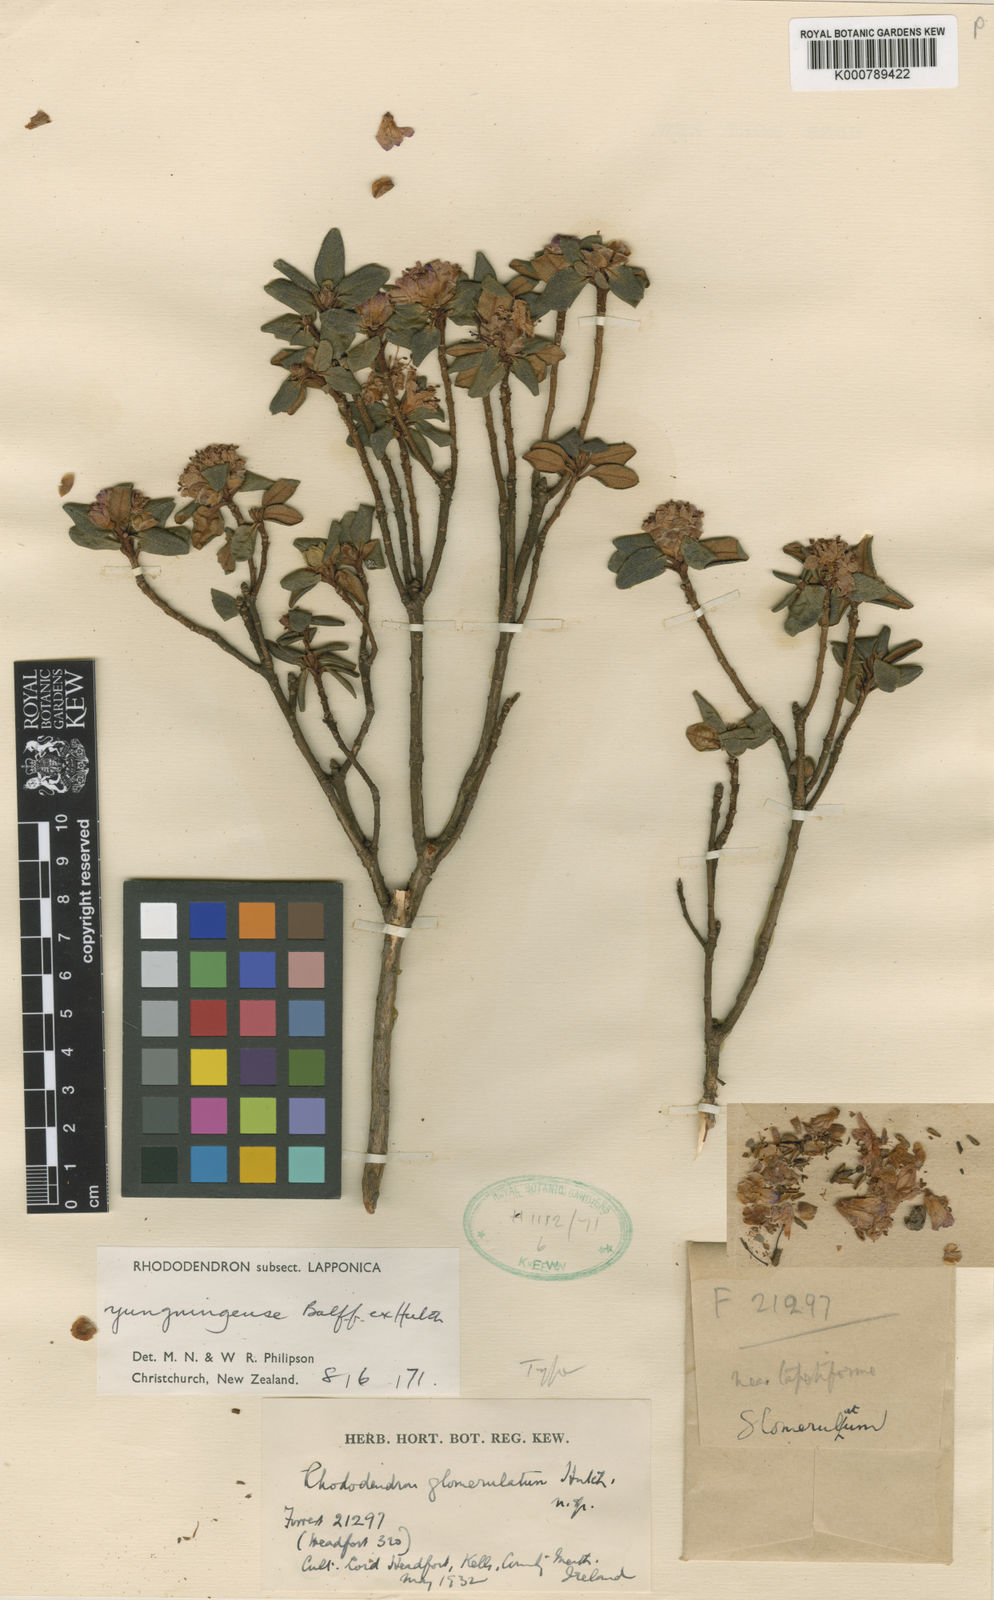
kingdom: Plantae
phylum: Tracheophyta
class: Magnoliopsida
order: Ericales
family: Ericaceae
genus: Rhododendron
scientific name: Rhododendron
